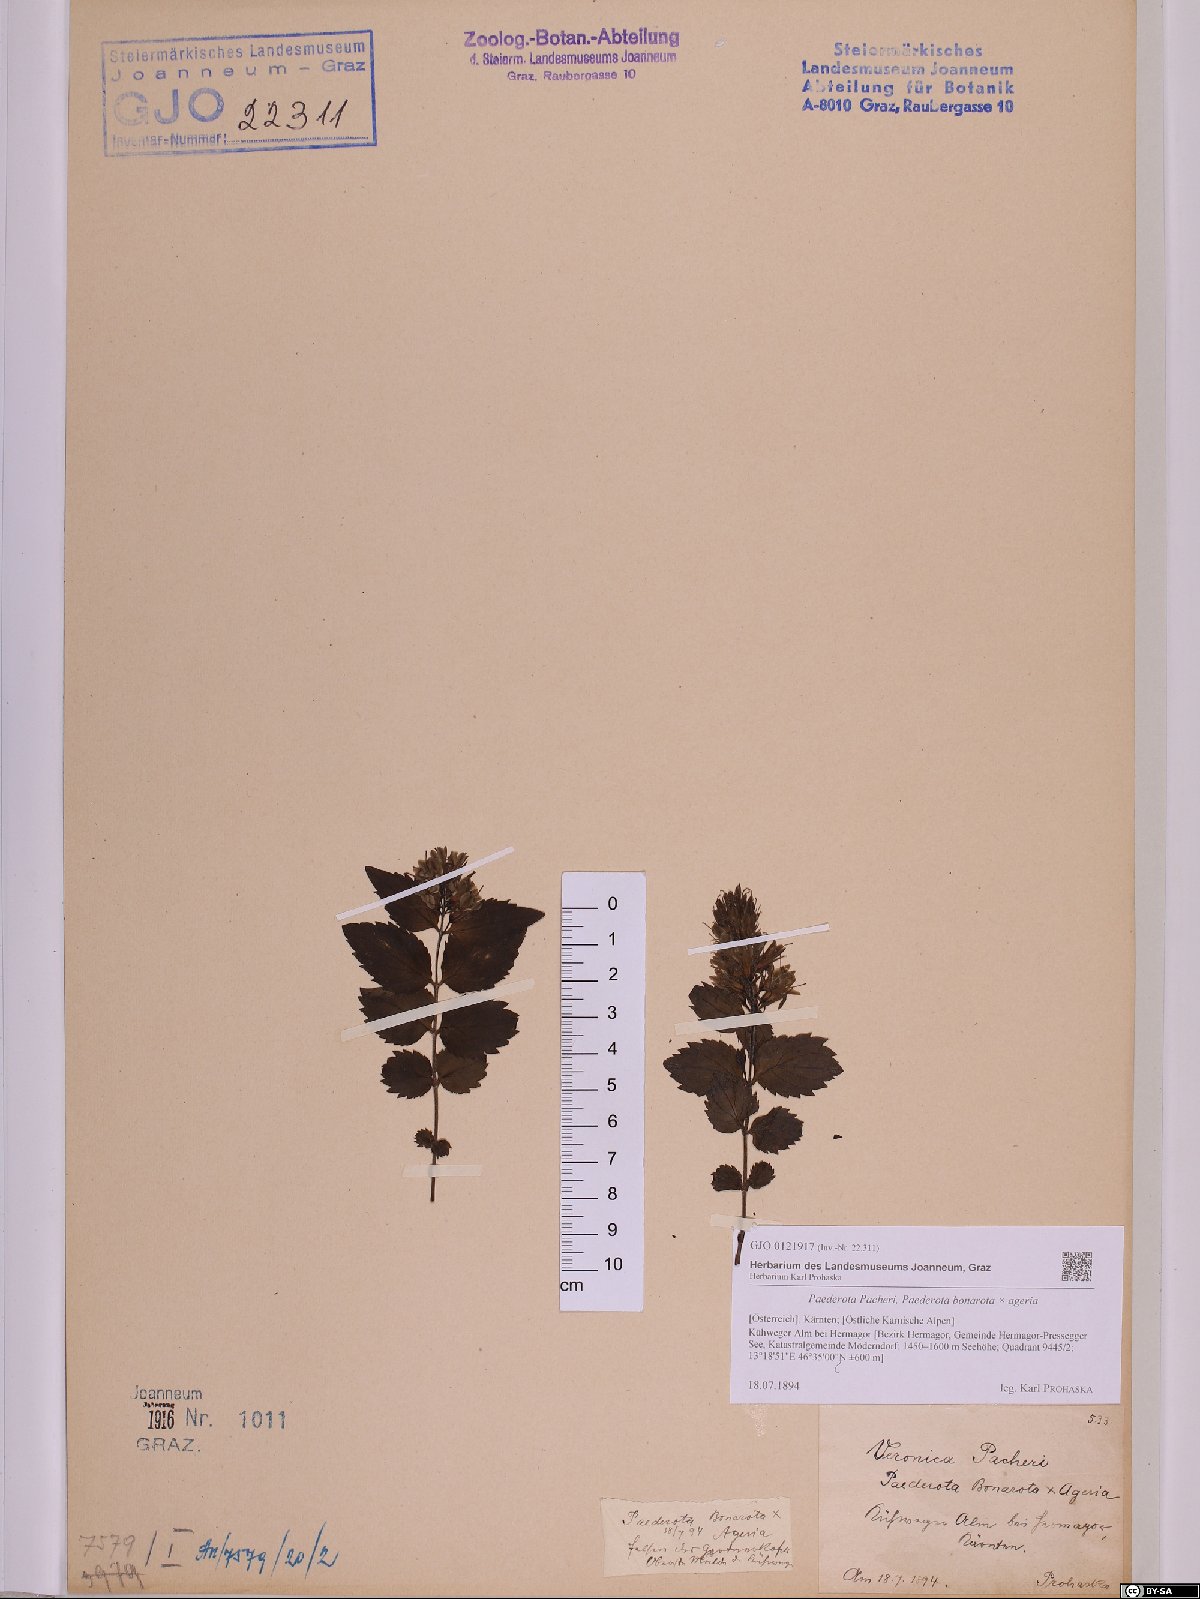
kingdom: Plantae
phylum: Tracheophyta
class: Magnoliopsida
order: Lamiales
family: Scrophulariaceae
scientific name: Scrophulariaceae
